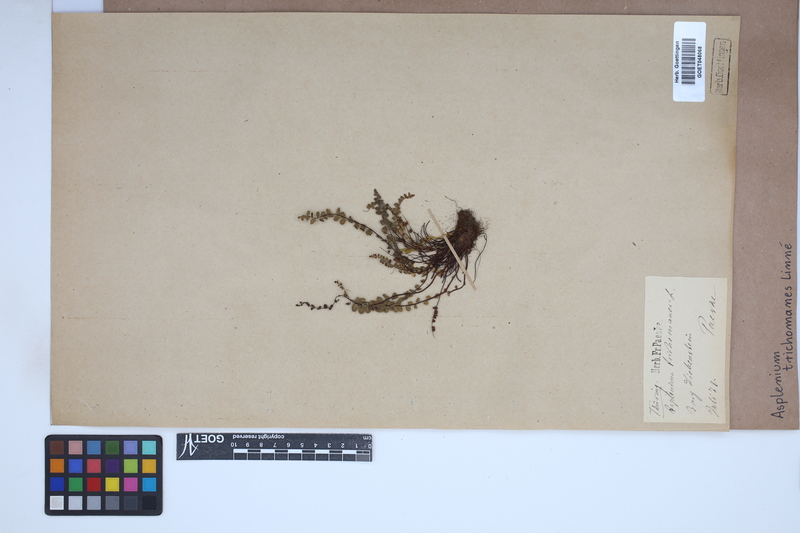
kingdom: Plantae
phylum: Tracheophyta
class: Polypodiopsida
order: Polypodiales
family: Aspleniaceae
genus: Asplenium
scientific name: Asplenium trichomanes
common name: Maidenhair spleenwort
